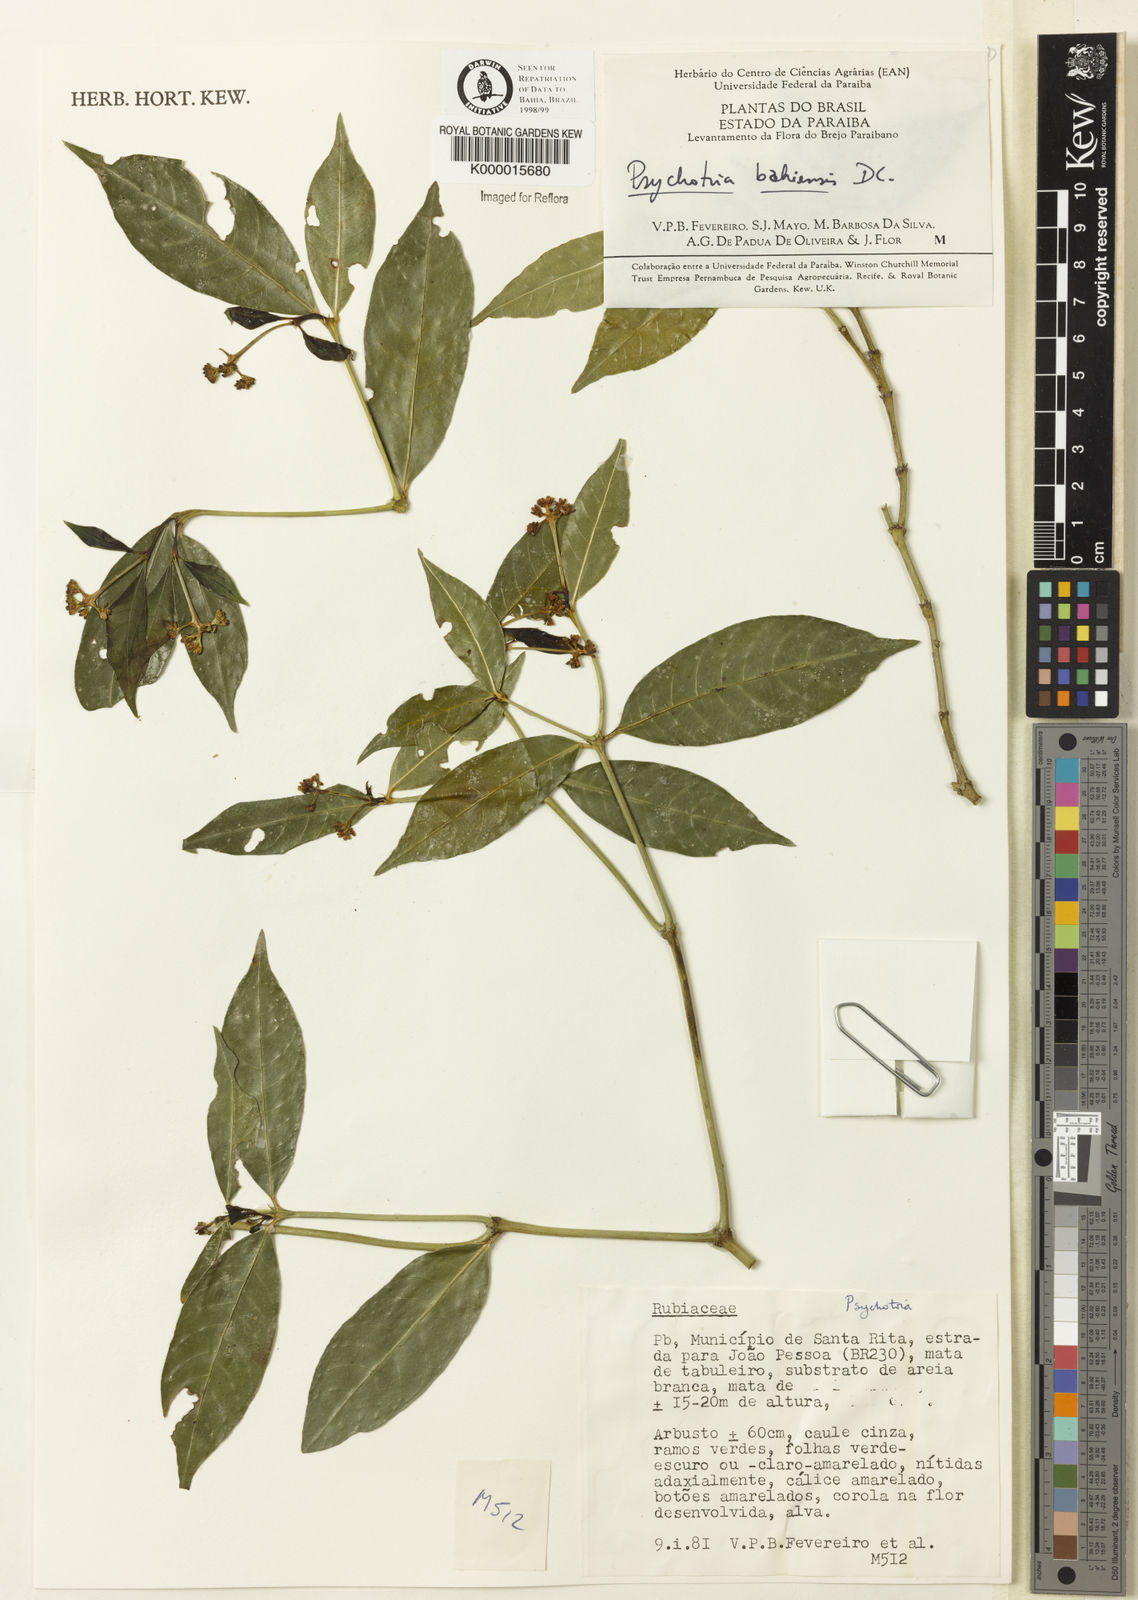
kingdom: Plantae
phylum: Tracheophyta
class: Magnoliopsida
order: Gentianales
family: Rubiaceae
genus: Psychotria
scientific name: Psychotria bahiensis
